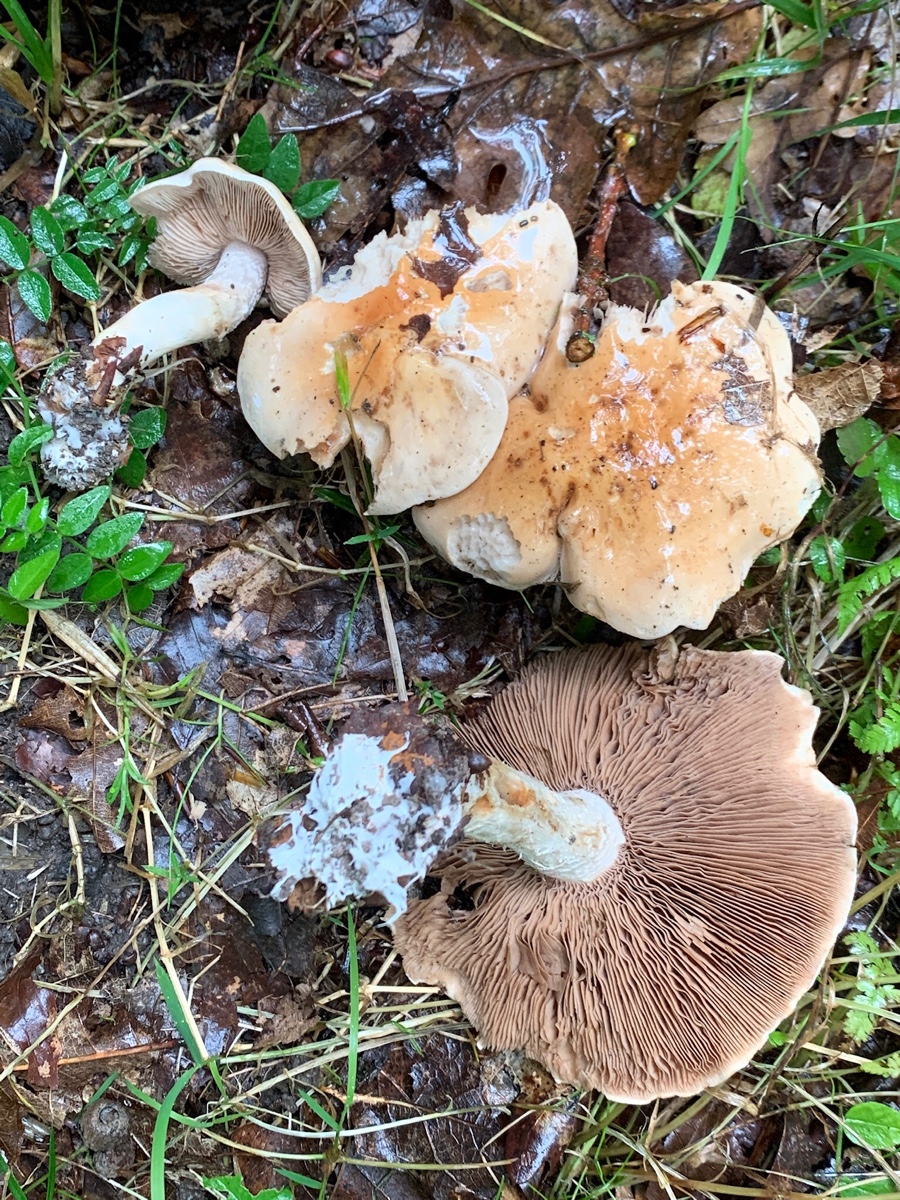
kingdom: Fungi
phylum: Basidiomycota
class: Agaricomycetes
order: Agaricales
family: Hymenogastraceae
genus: Hebeloma
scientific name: Hebeloma sinapizans
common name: ræddike-tåreblad
